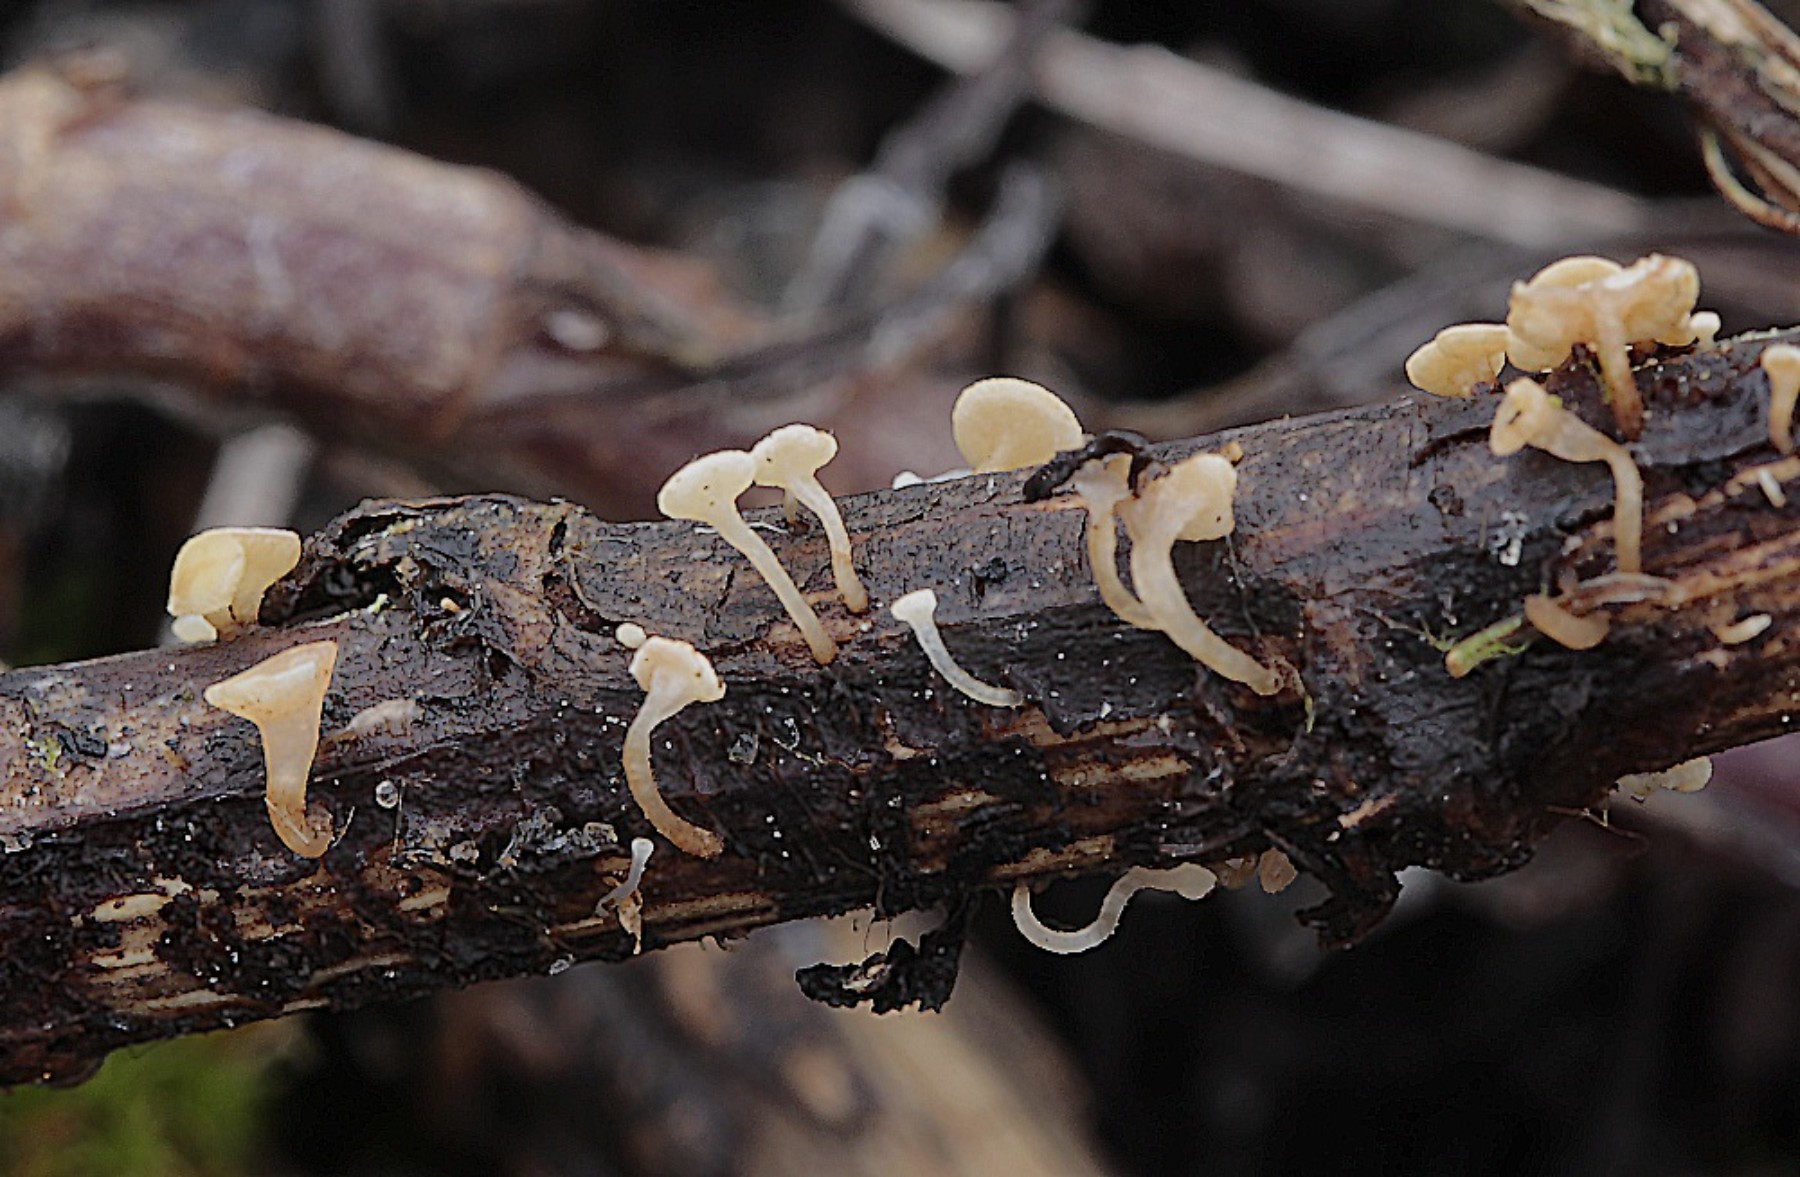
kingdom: Fungi
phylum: Ascomycota
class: Leotiomycetes
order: Helotiales
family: Helotiaceae
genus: Hymenoscyphus
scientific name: Hymenoscyphus scutula
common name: almindelig stilkskive
